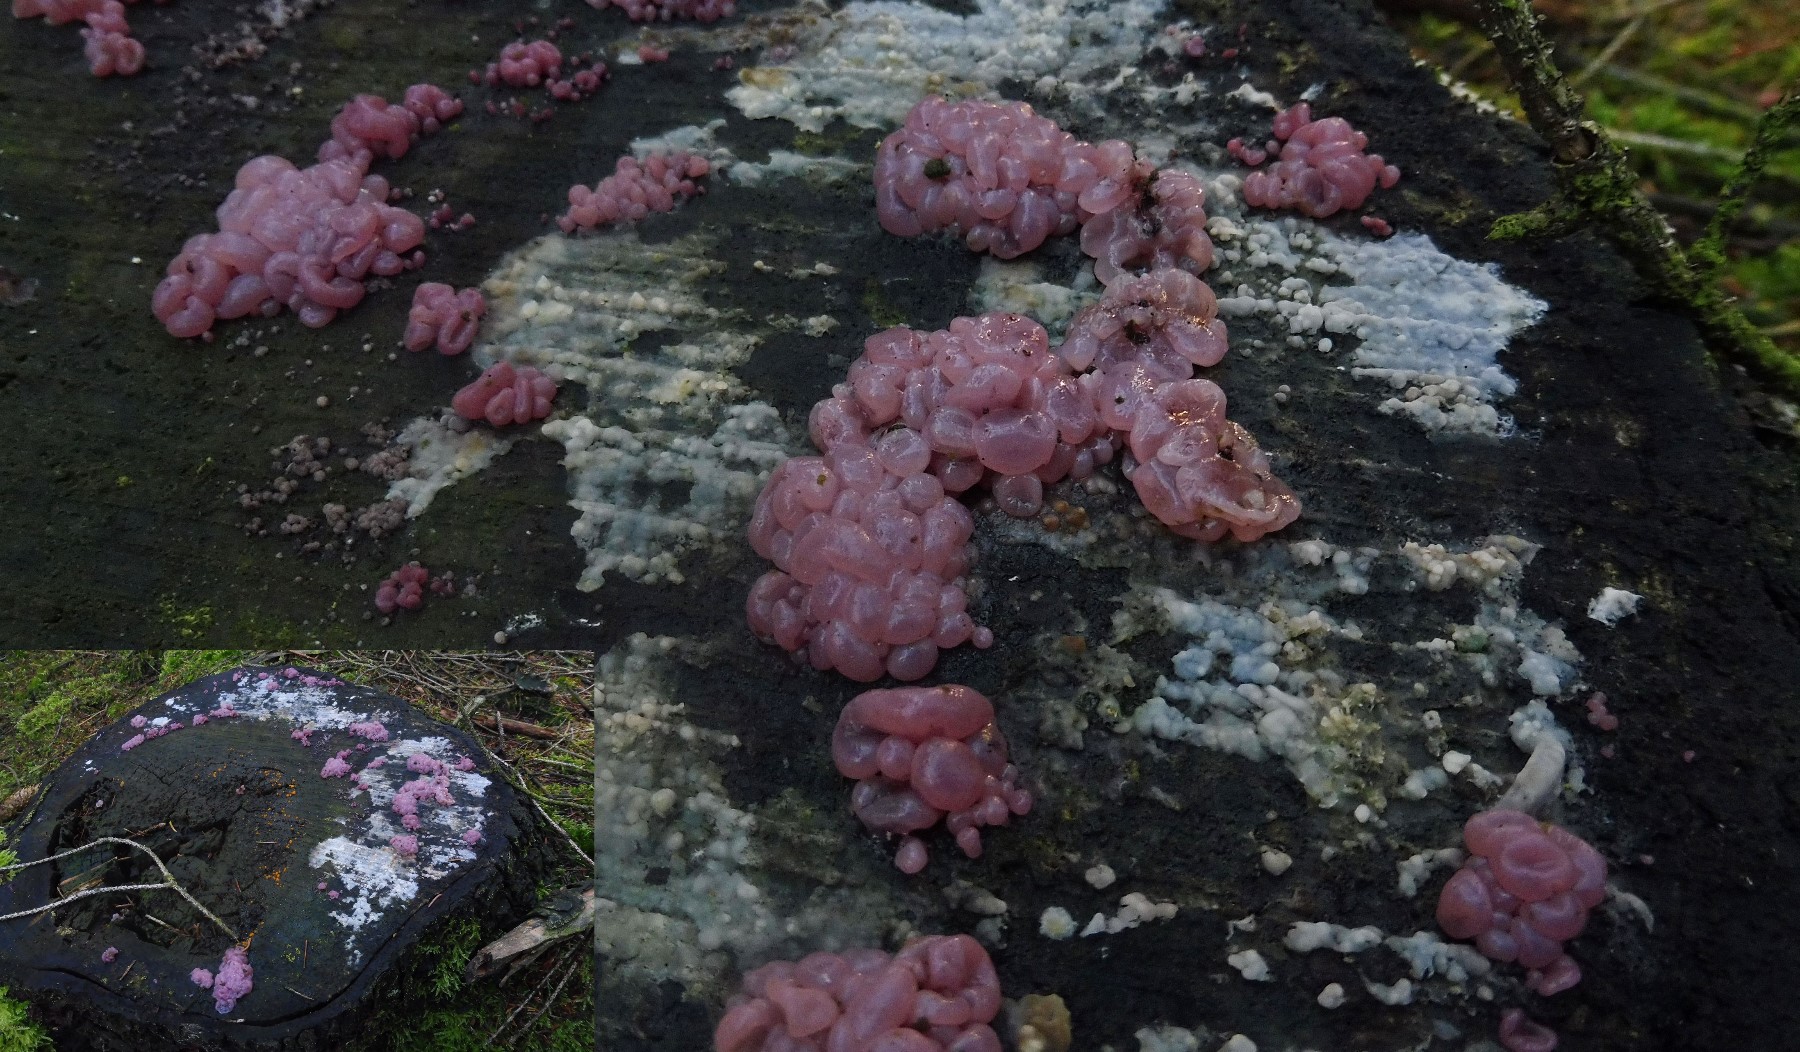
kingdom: Fungi
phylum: Ascomycota
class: Leotiomycetes
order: Helotiales
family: Gelatinodiscaceae
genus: Ascocoryne
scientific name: Ascocoryne sarcoides
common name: rødlilla sejskive
